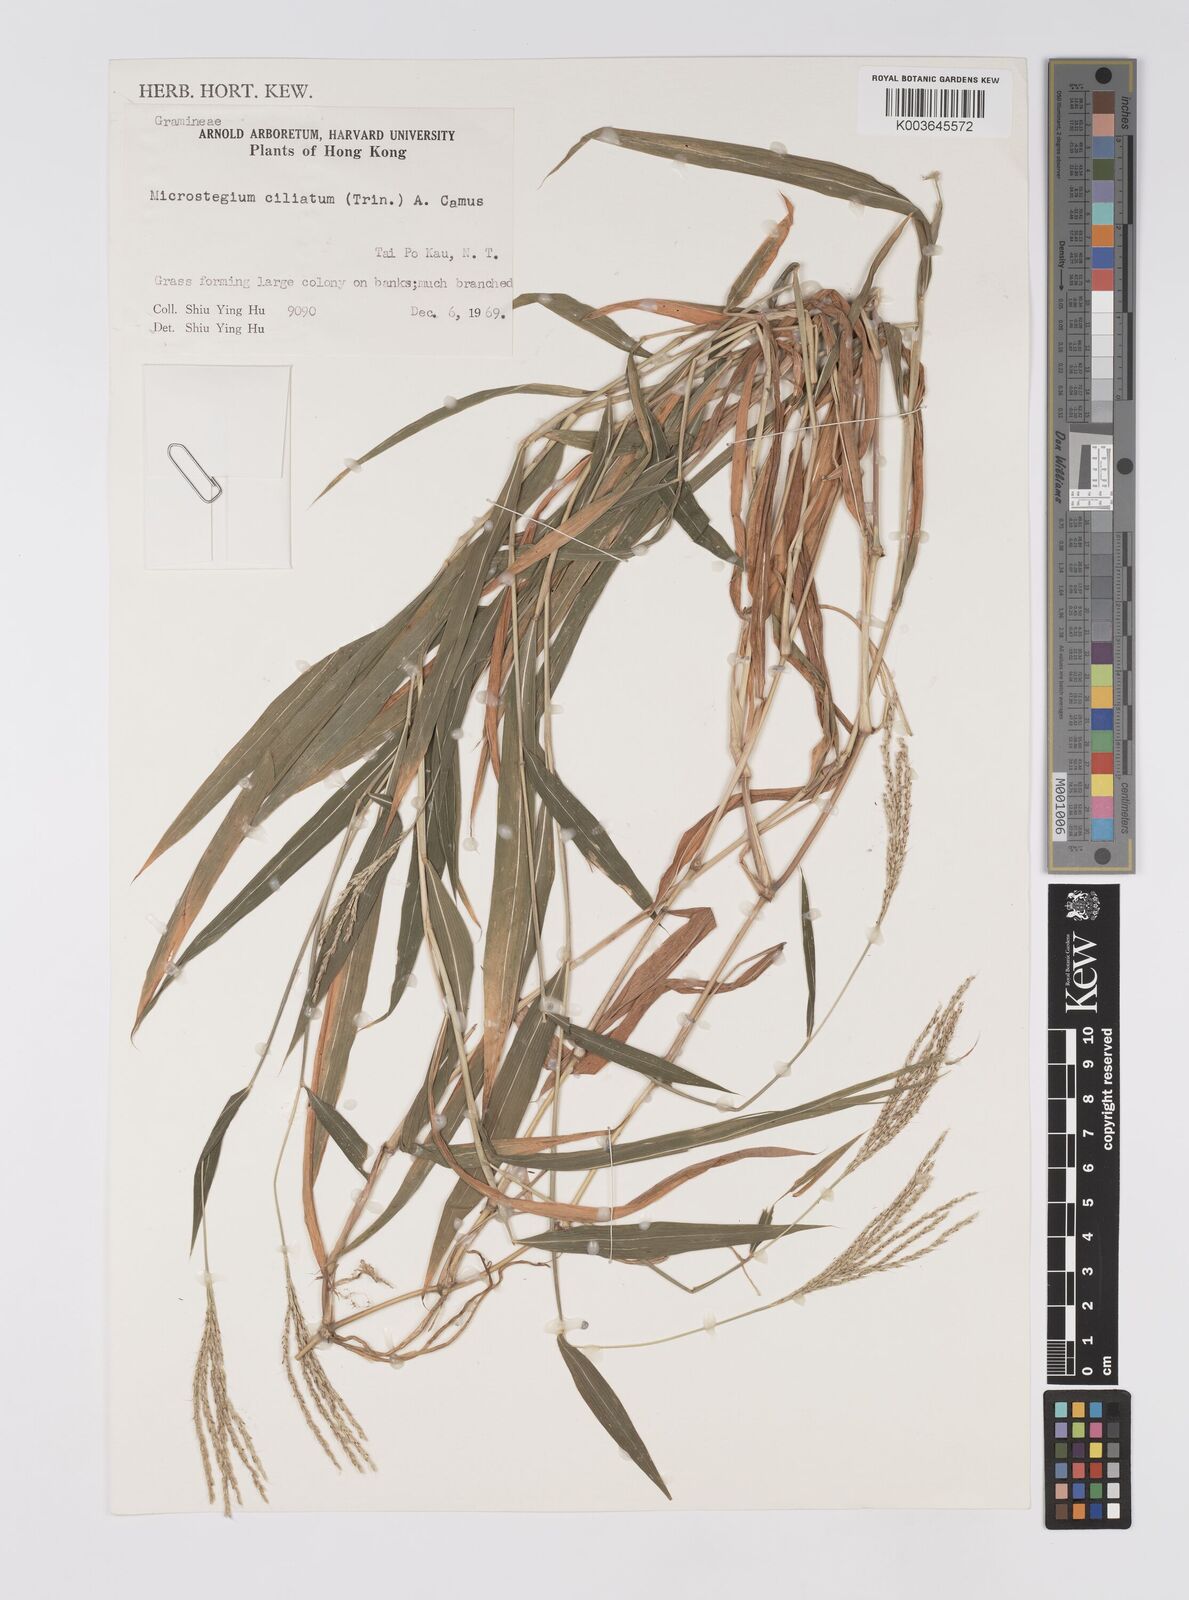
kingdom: Plantae
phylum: Tracheophyta
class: Liliopsida
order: Poales
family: Poaceae
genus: Microstegium
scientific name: Microstegium fasciculatum
